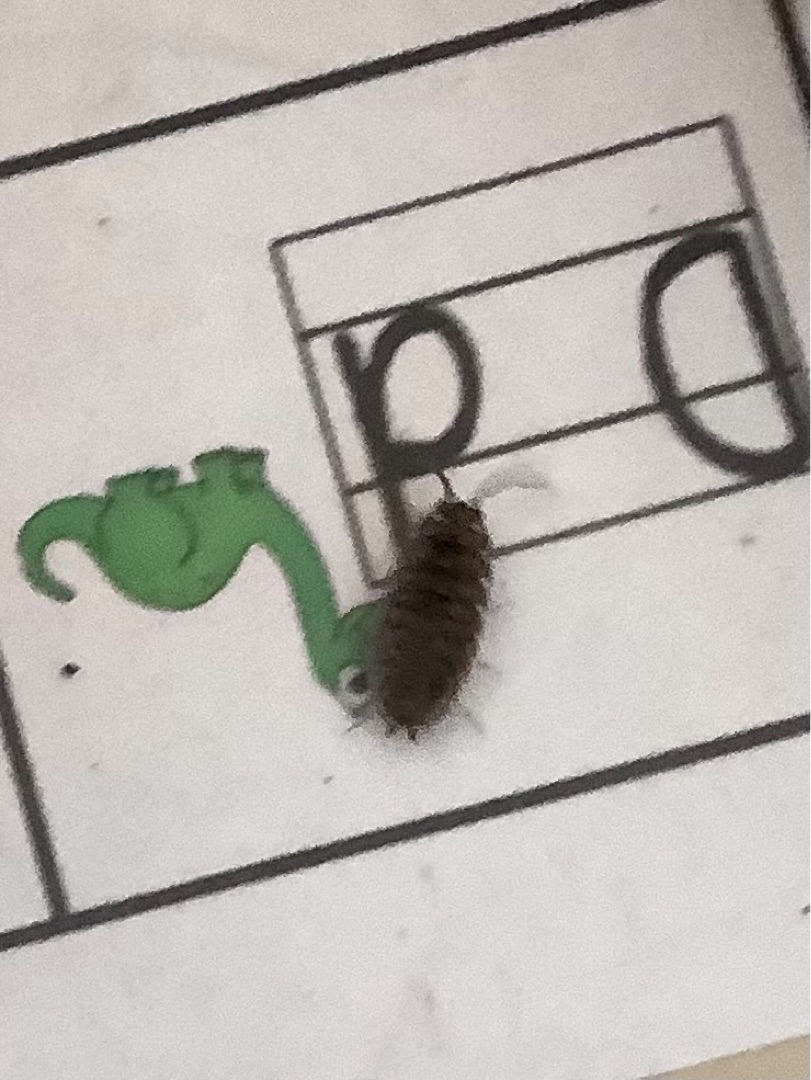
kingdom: Animalia
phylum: Arthropoda
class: Malacostraca
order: Isopoda
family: Oniscidae
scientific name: Oniscidae
